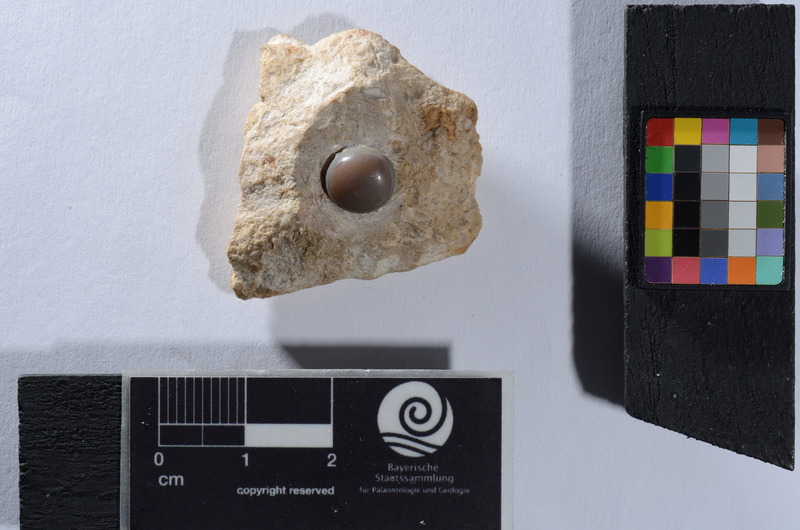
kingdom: Animalia
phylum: Chordata
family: Pycnodontidae
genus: Sphaerodus
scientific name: Sphaerodus gigas
